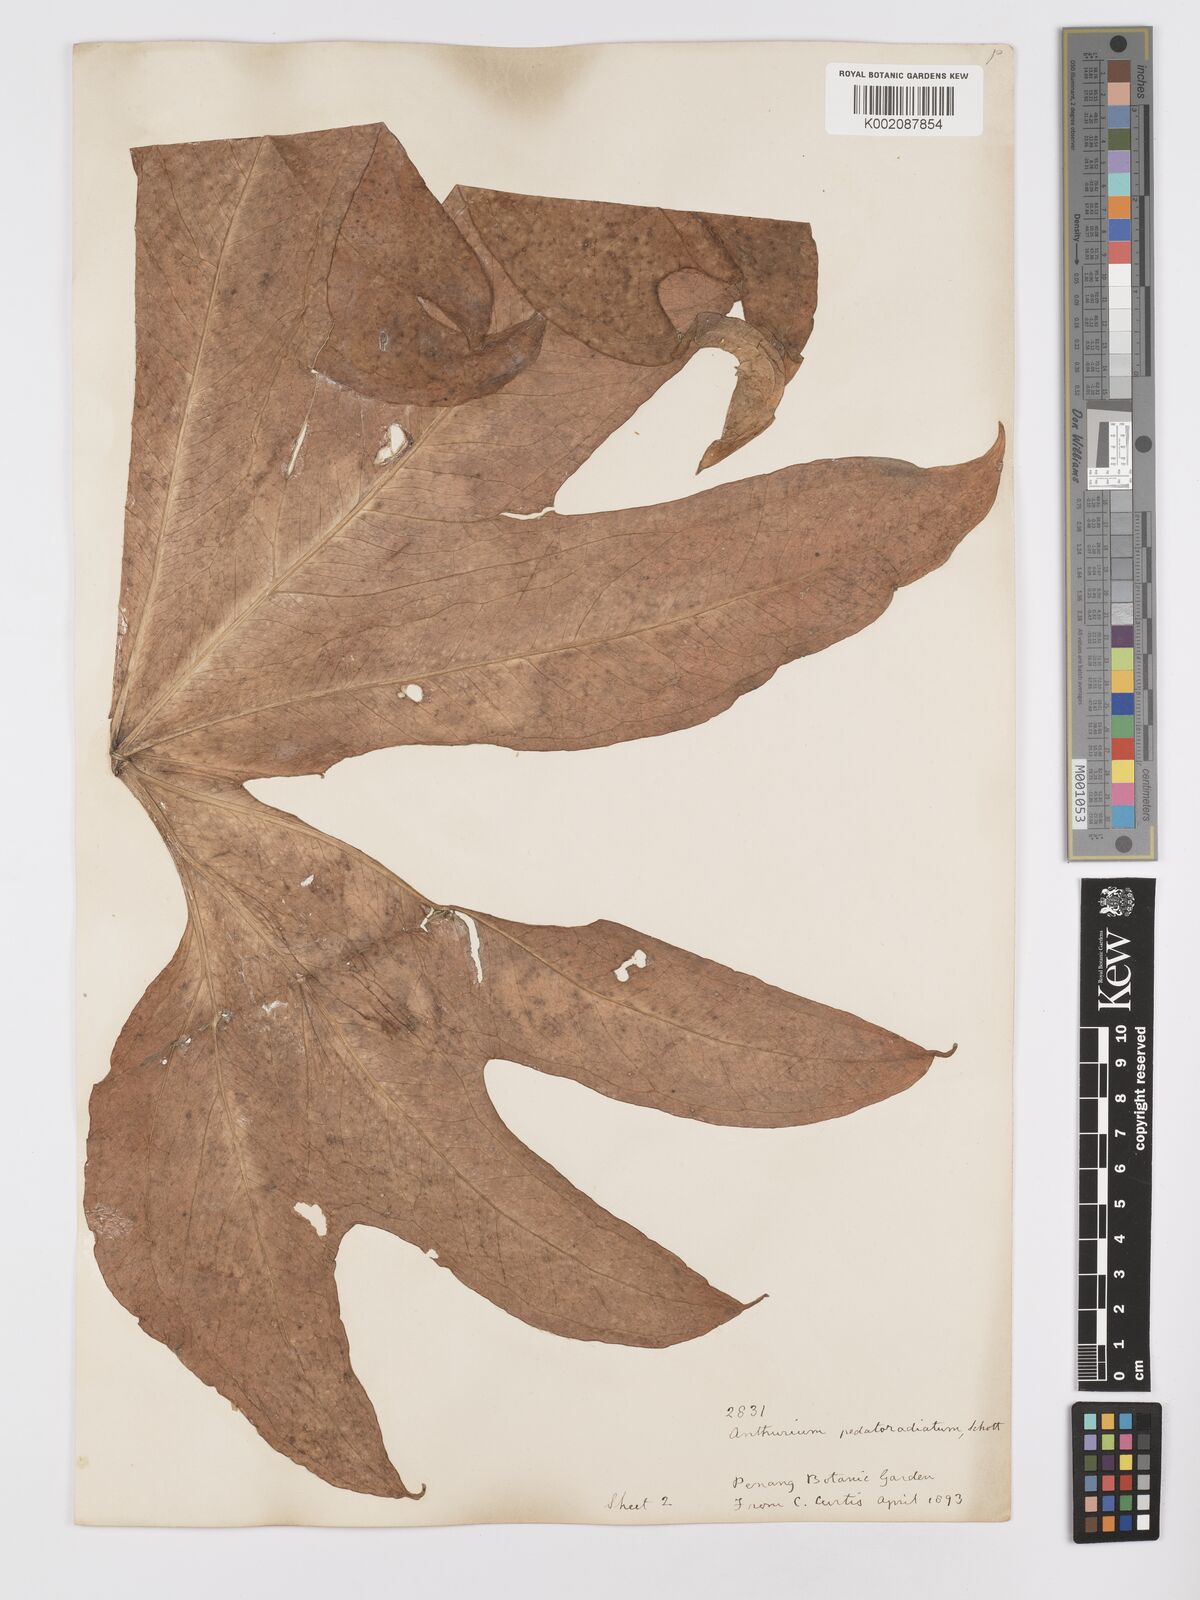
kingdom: Plantae
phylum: Tracheophyta
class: Liliopsida
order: Alismatales
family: Araceae
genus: Anthurium
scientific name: Anthurium pedatoradiatum
